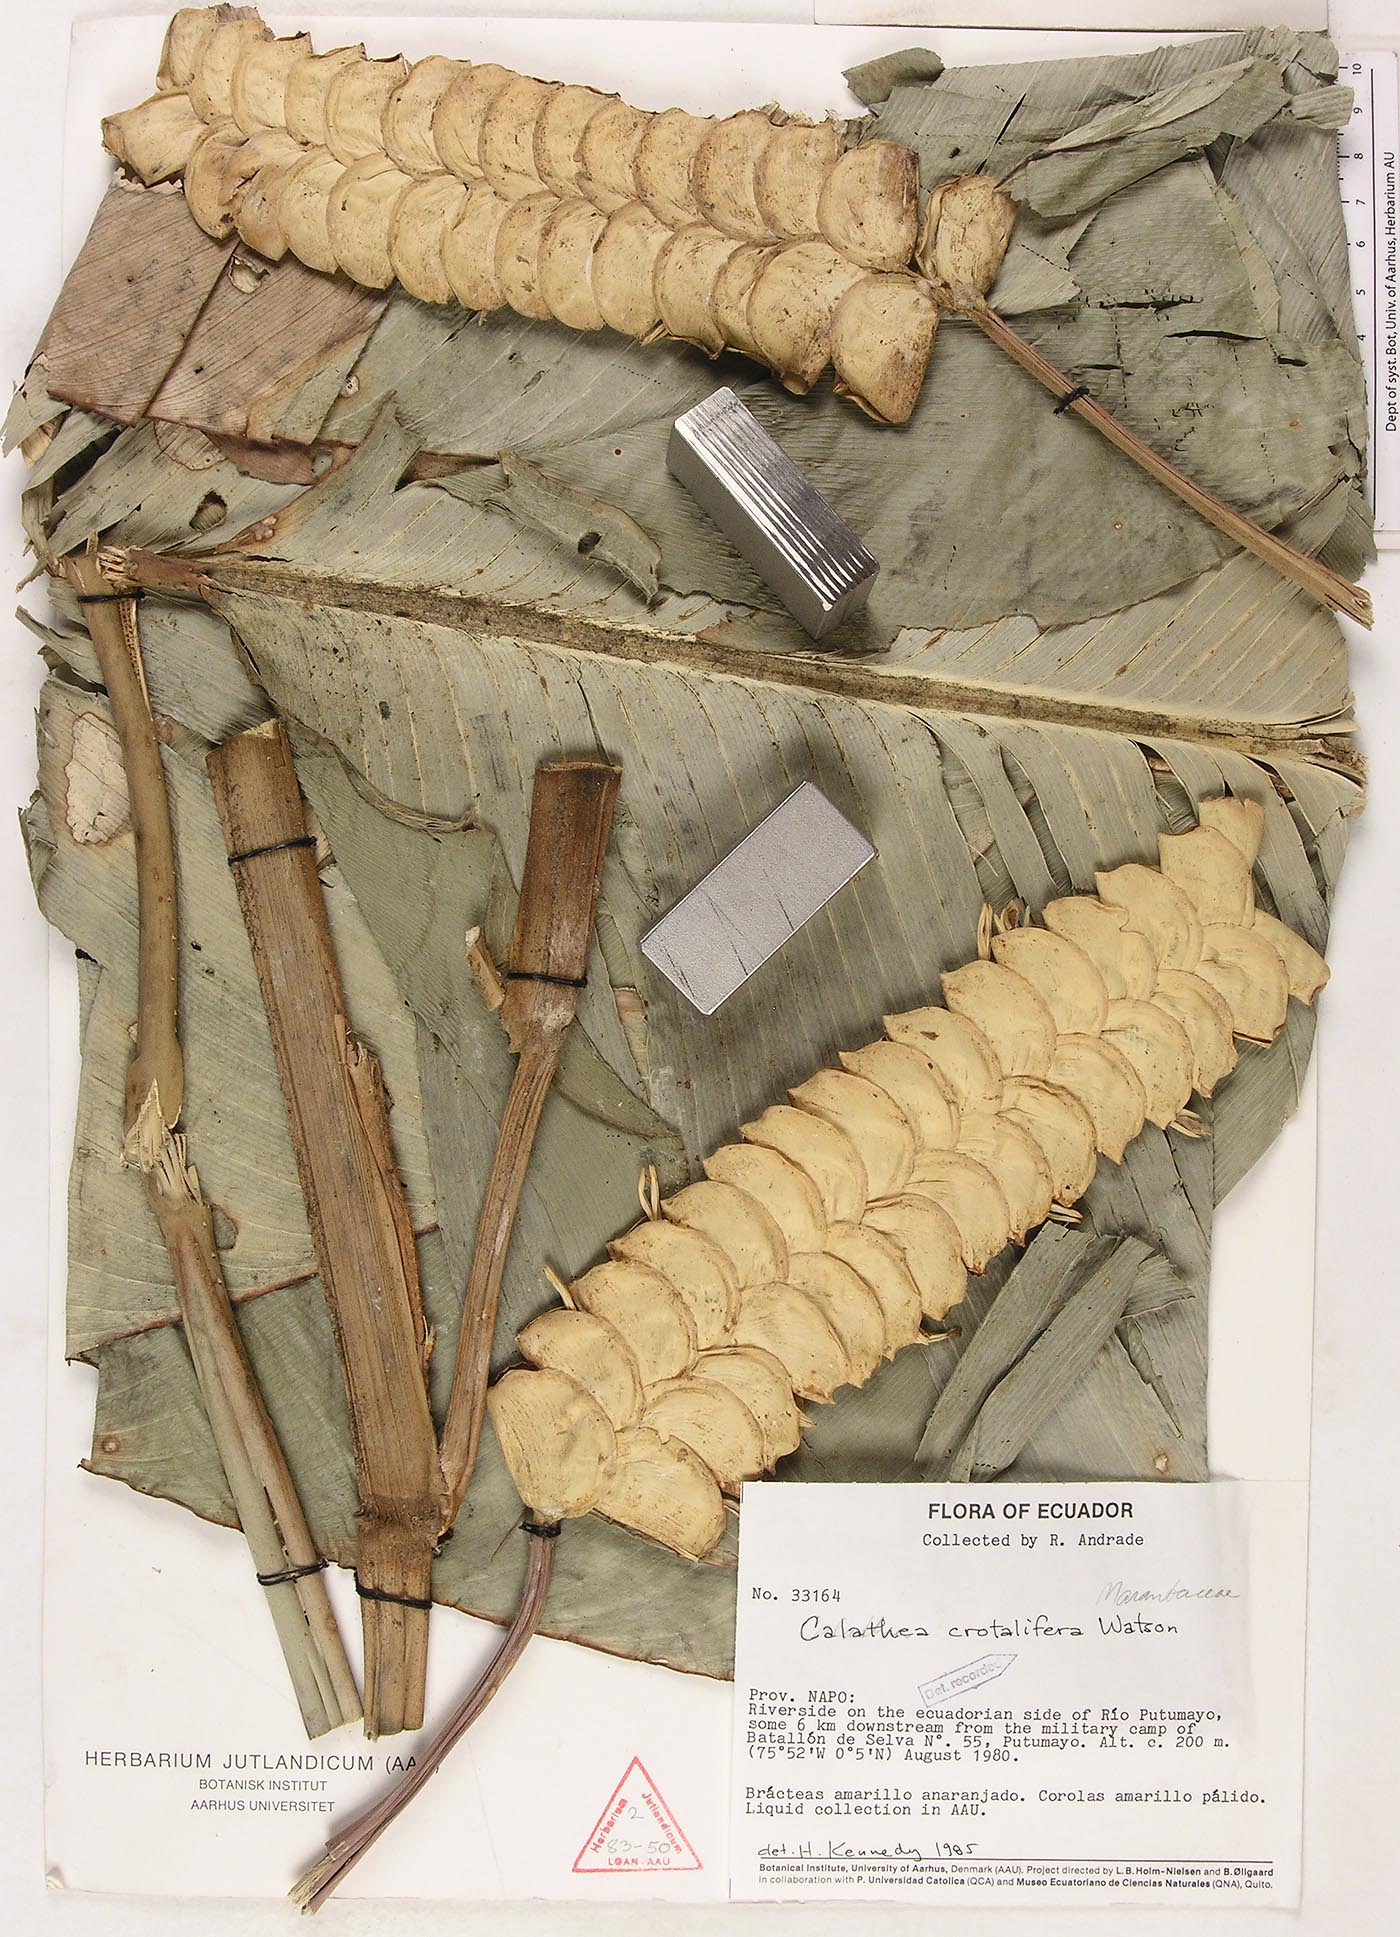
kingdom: Plantae
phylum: Tracheophyta
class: Liliopsida
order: Zingiberales
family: Marantaceae
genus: Calathea
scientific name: Calathea crotalifera
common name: Rattlesnake plant
